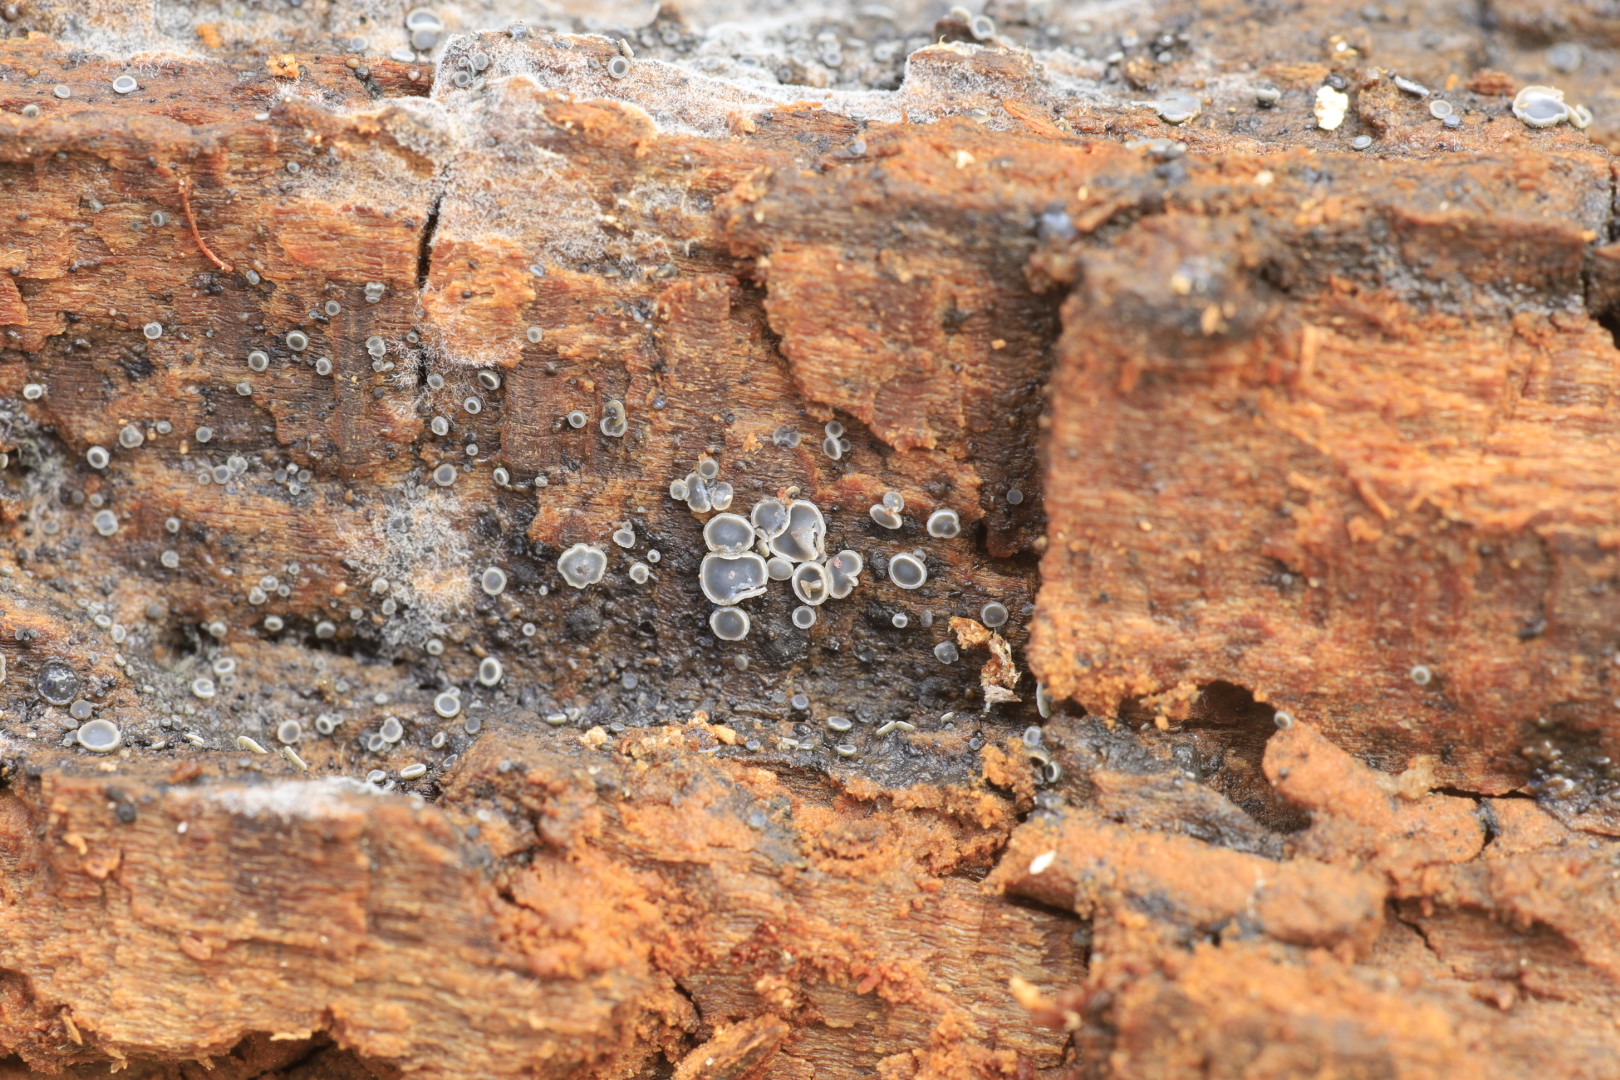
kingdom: Fungi
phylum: Ascomycota
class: Leotiomycetes
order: Helotiales
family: Mollisiaceae
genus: Mollisia
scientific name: Mollisia
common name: gråskive
